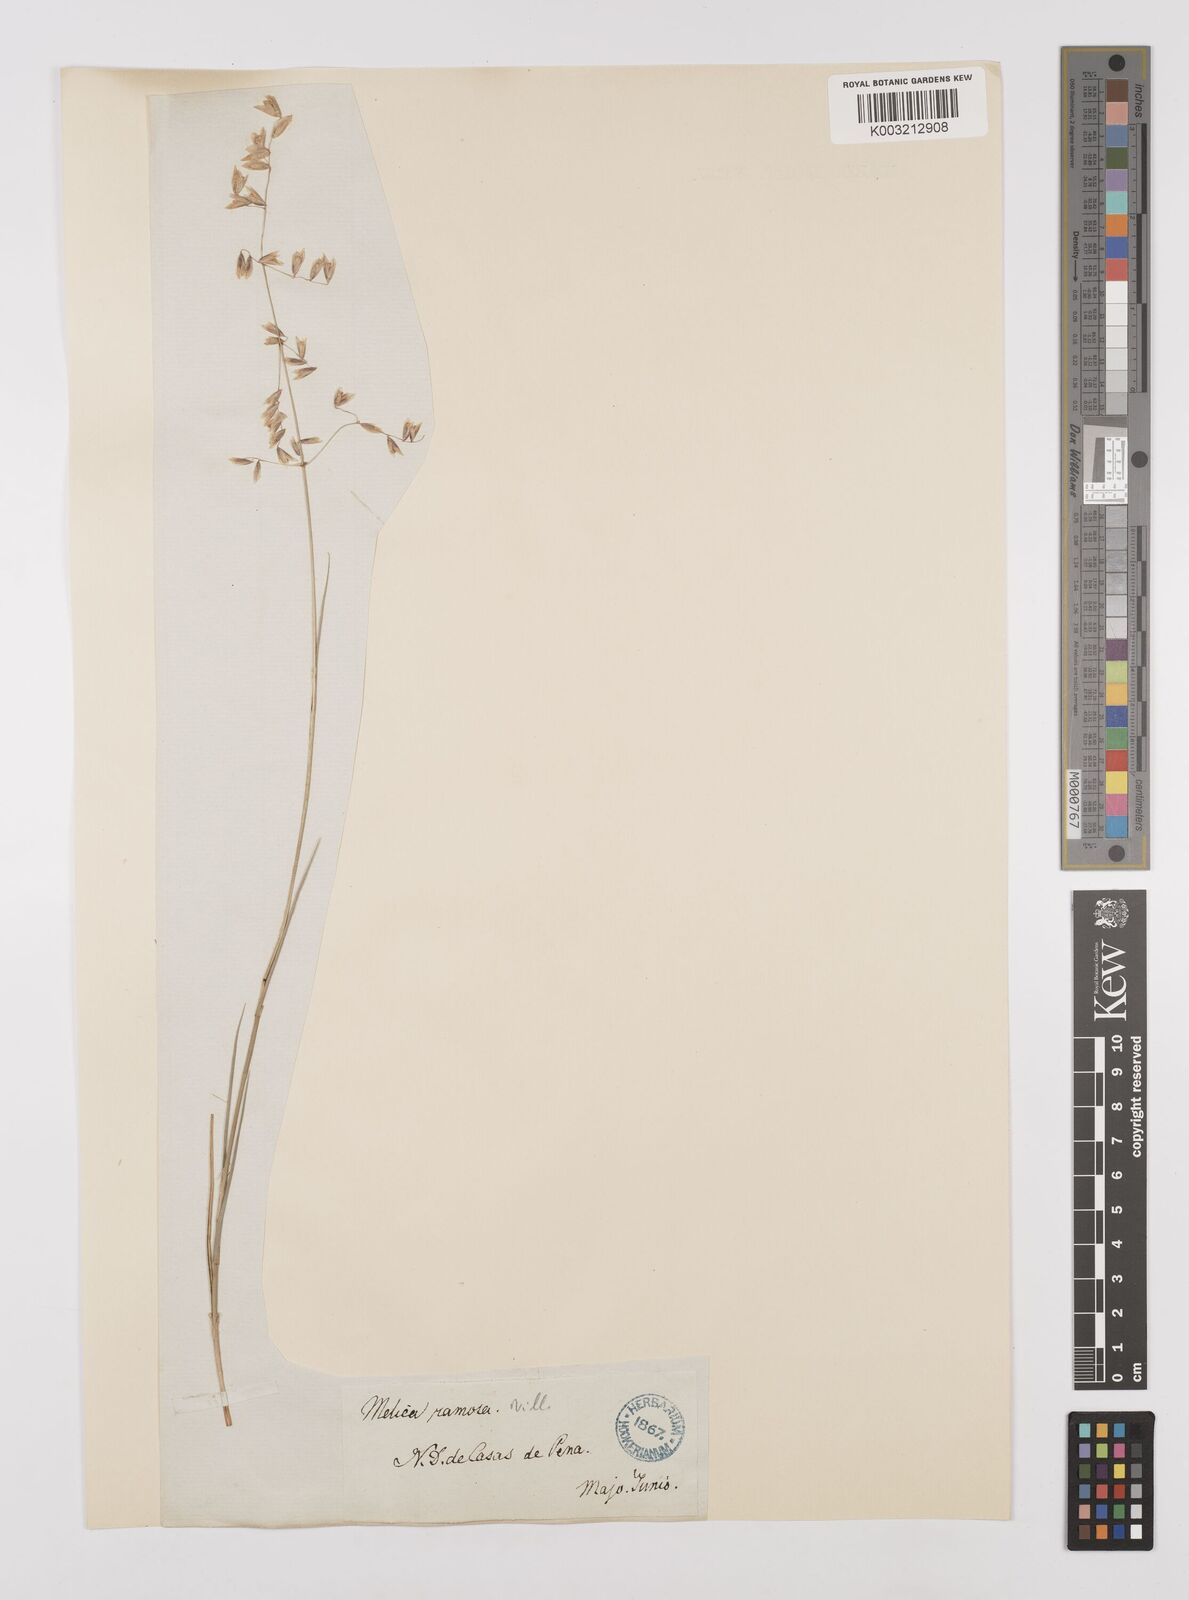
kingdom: Plantae
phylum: Tracheophyta
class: Liliopsida
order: Poales
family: Poaceae
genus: Melica
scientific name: Melica minuta
